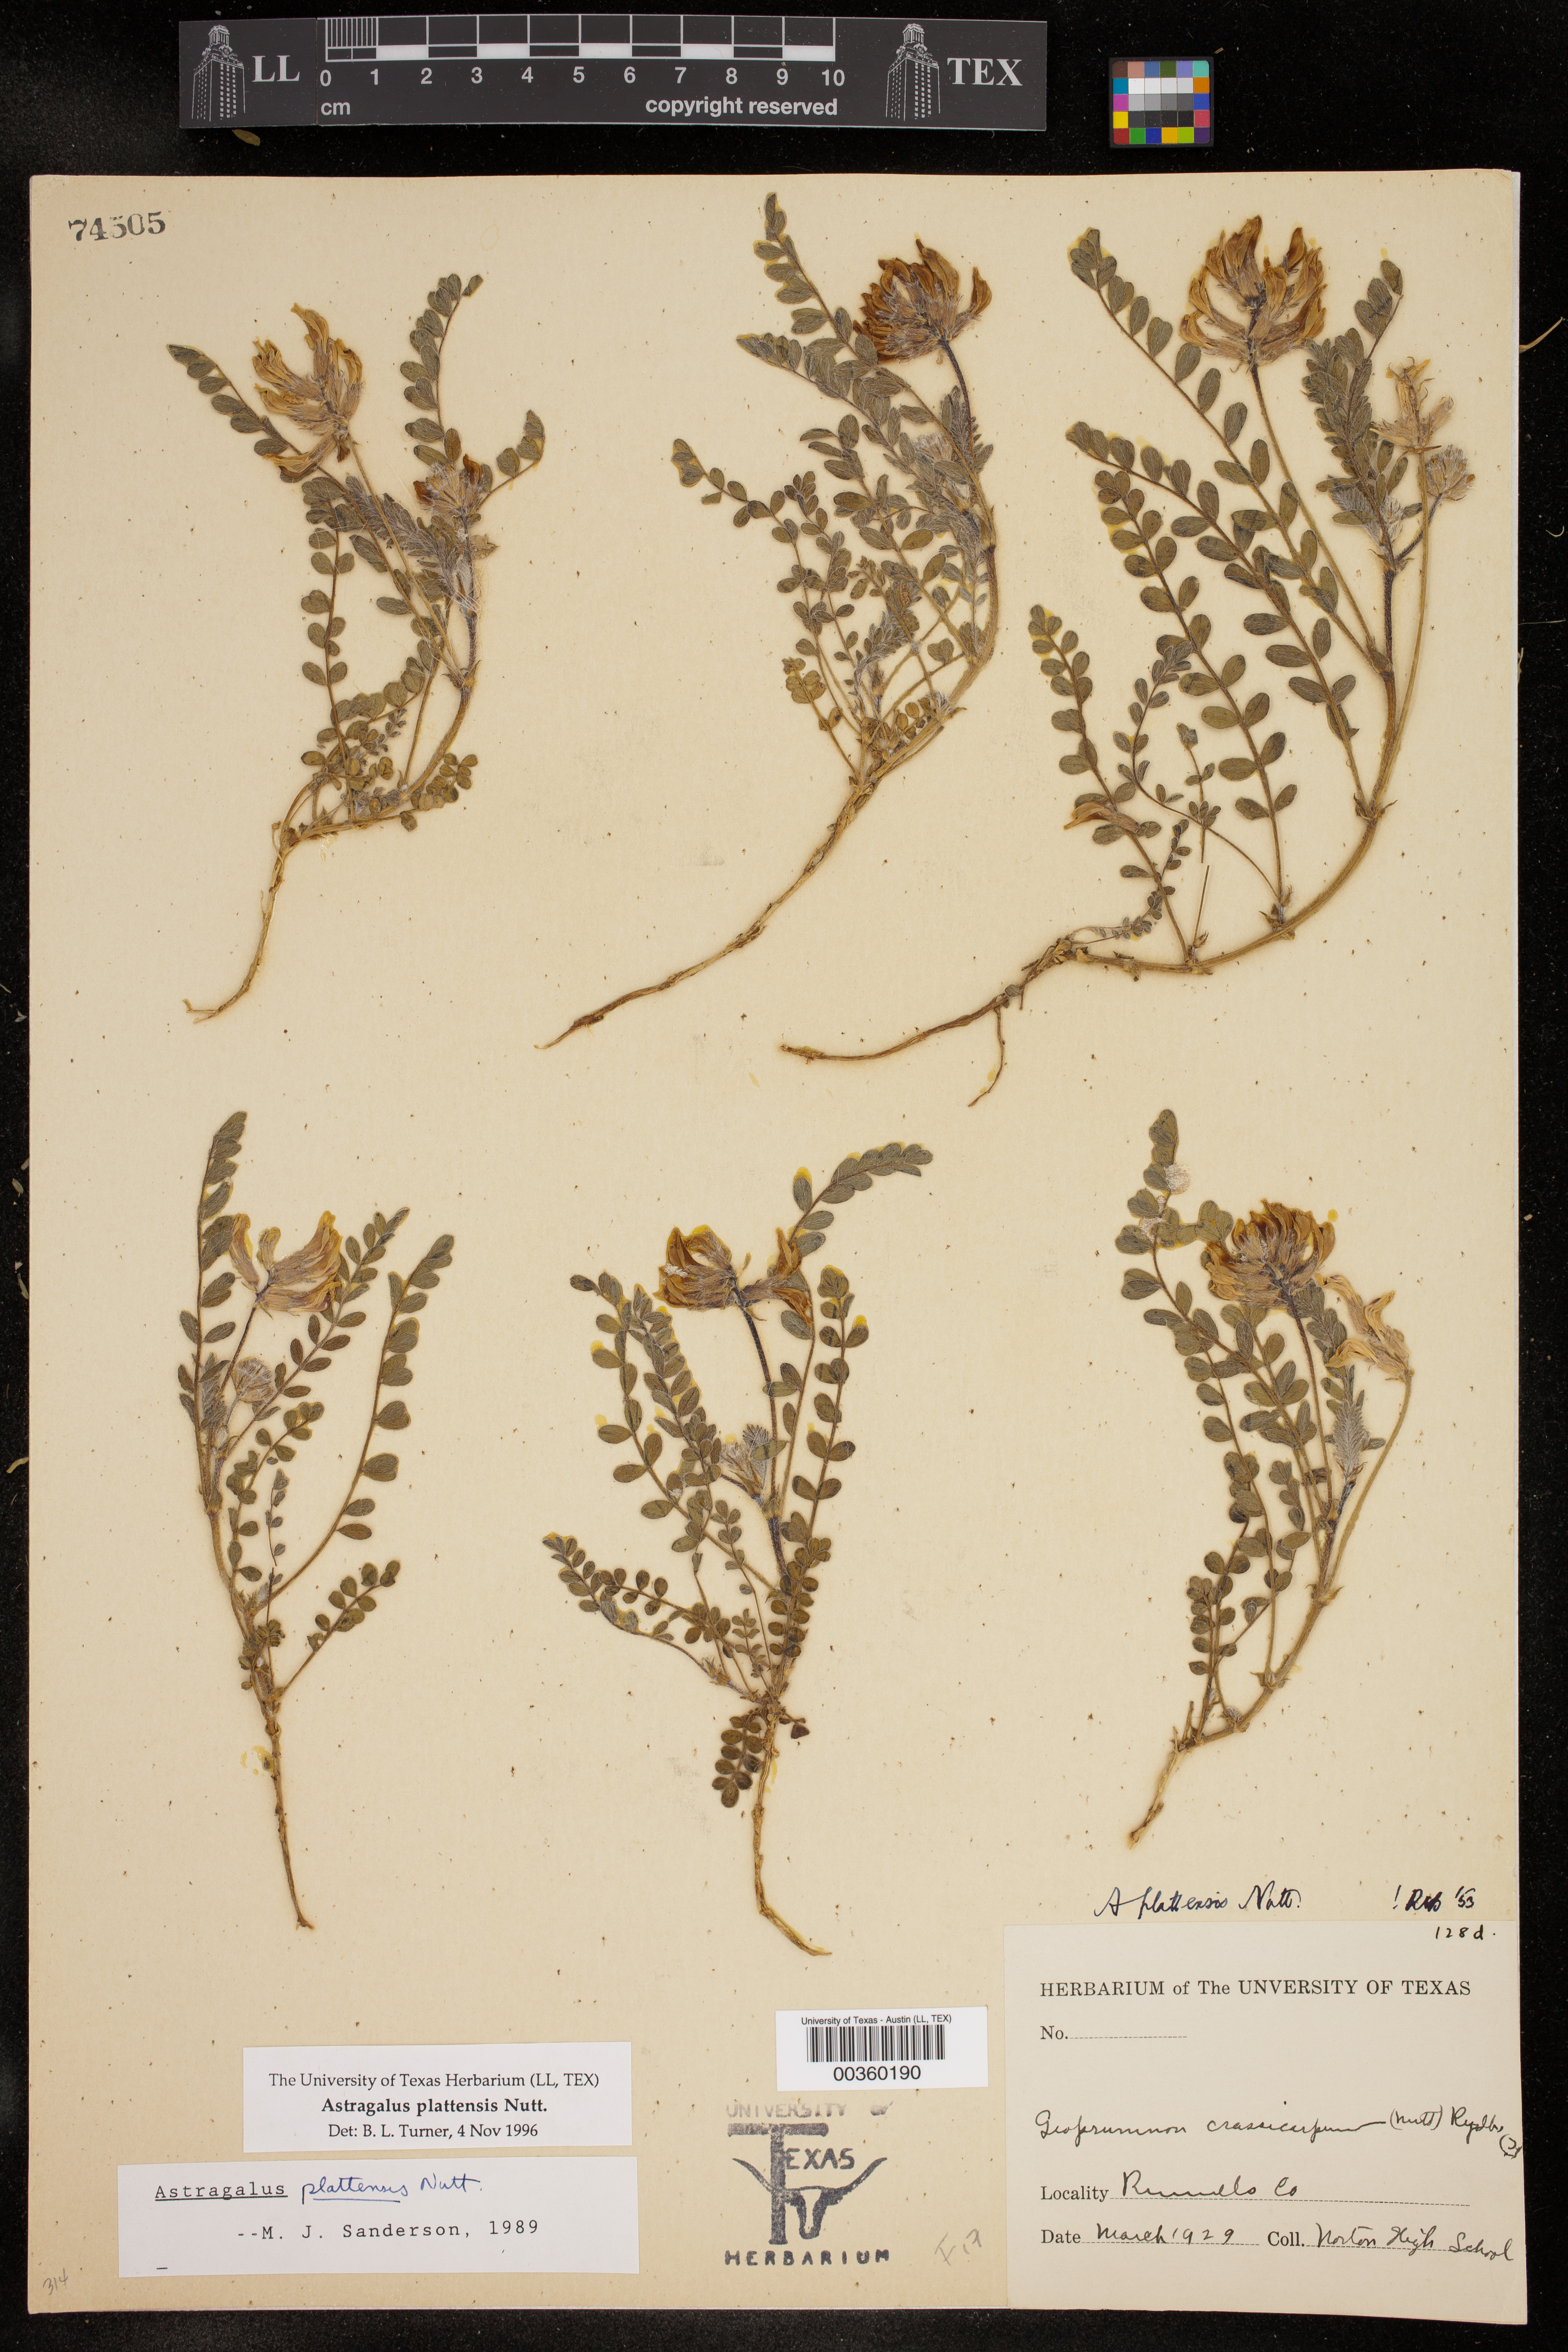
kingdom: Plantae
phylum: Tracheophyta
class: Magnoliopsida
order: Fabales
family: Fabaceae
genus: Astragalus
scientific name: Astragalus plattensis
